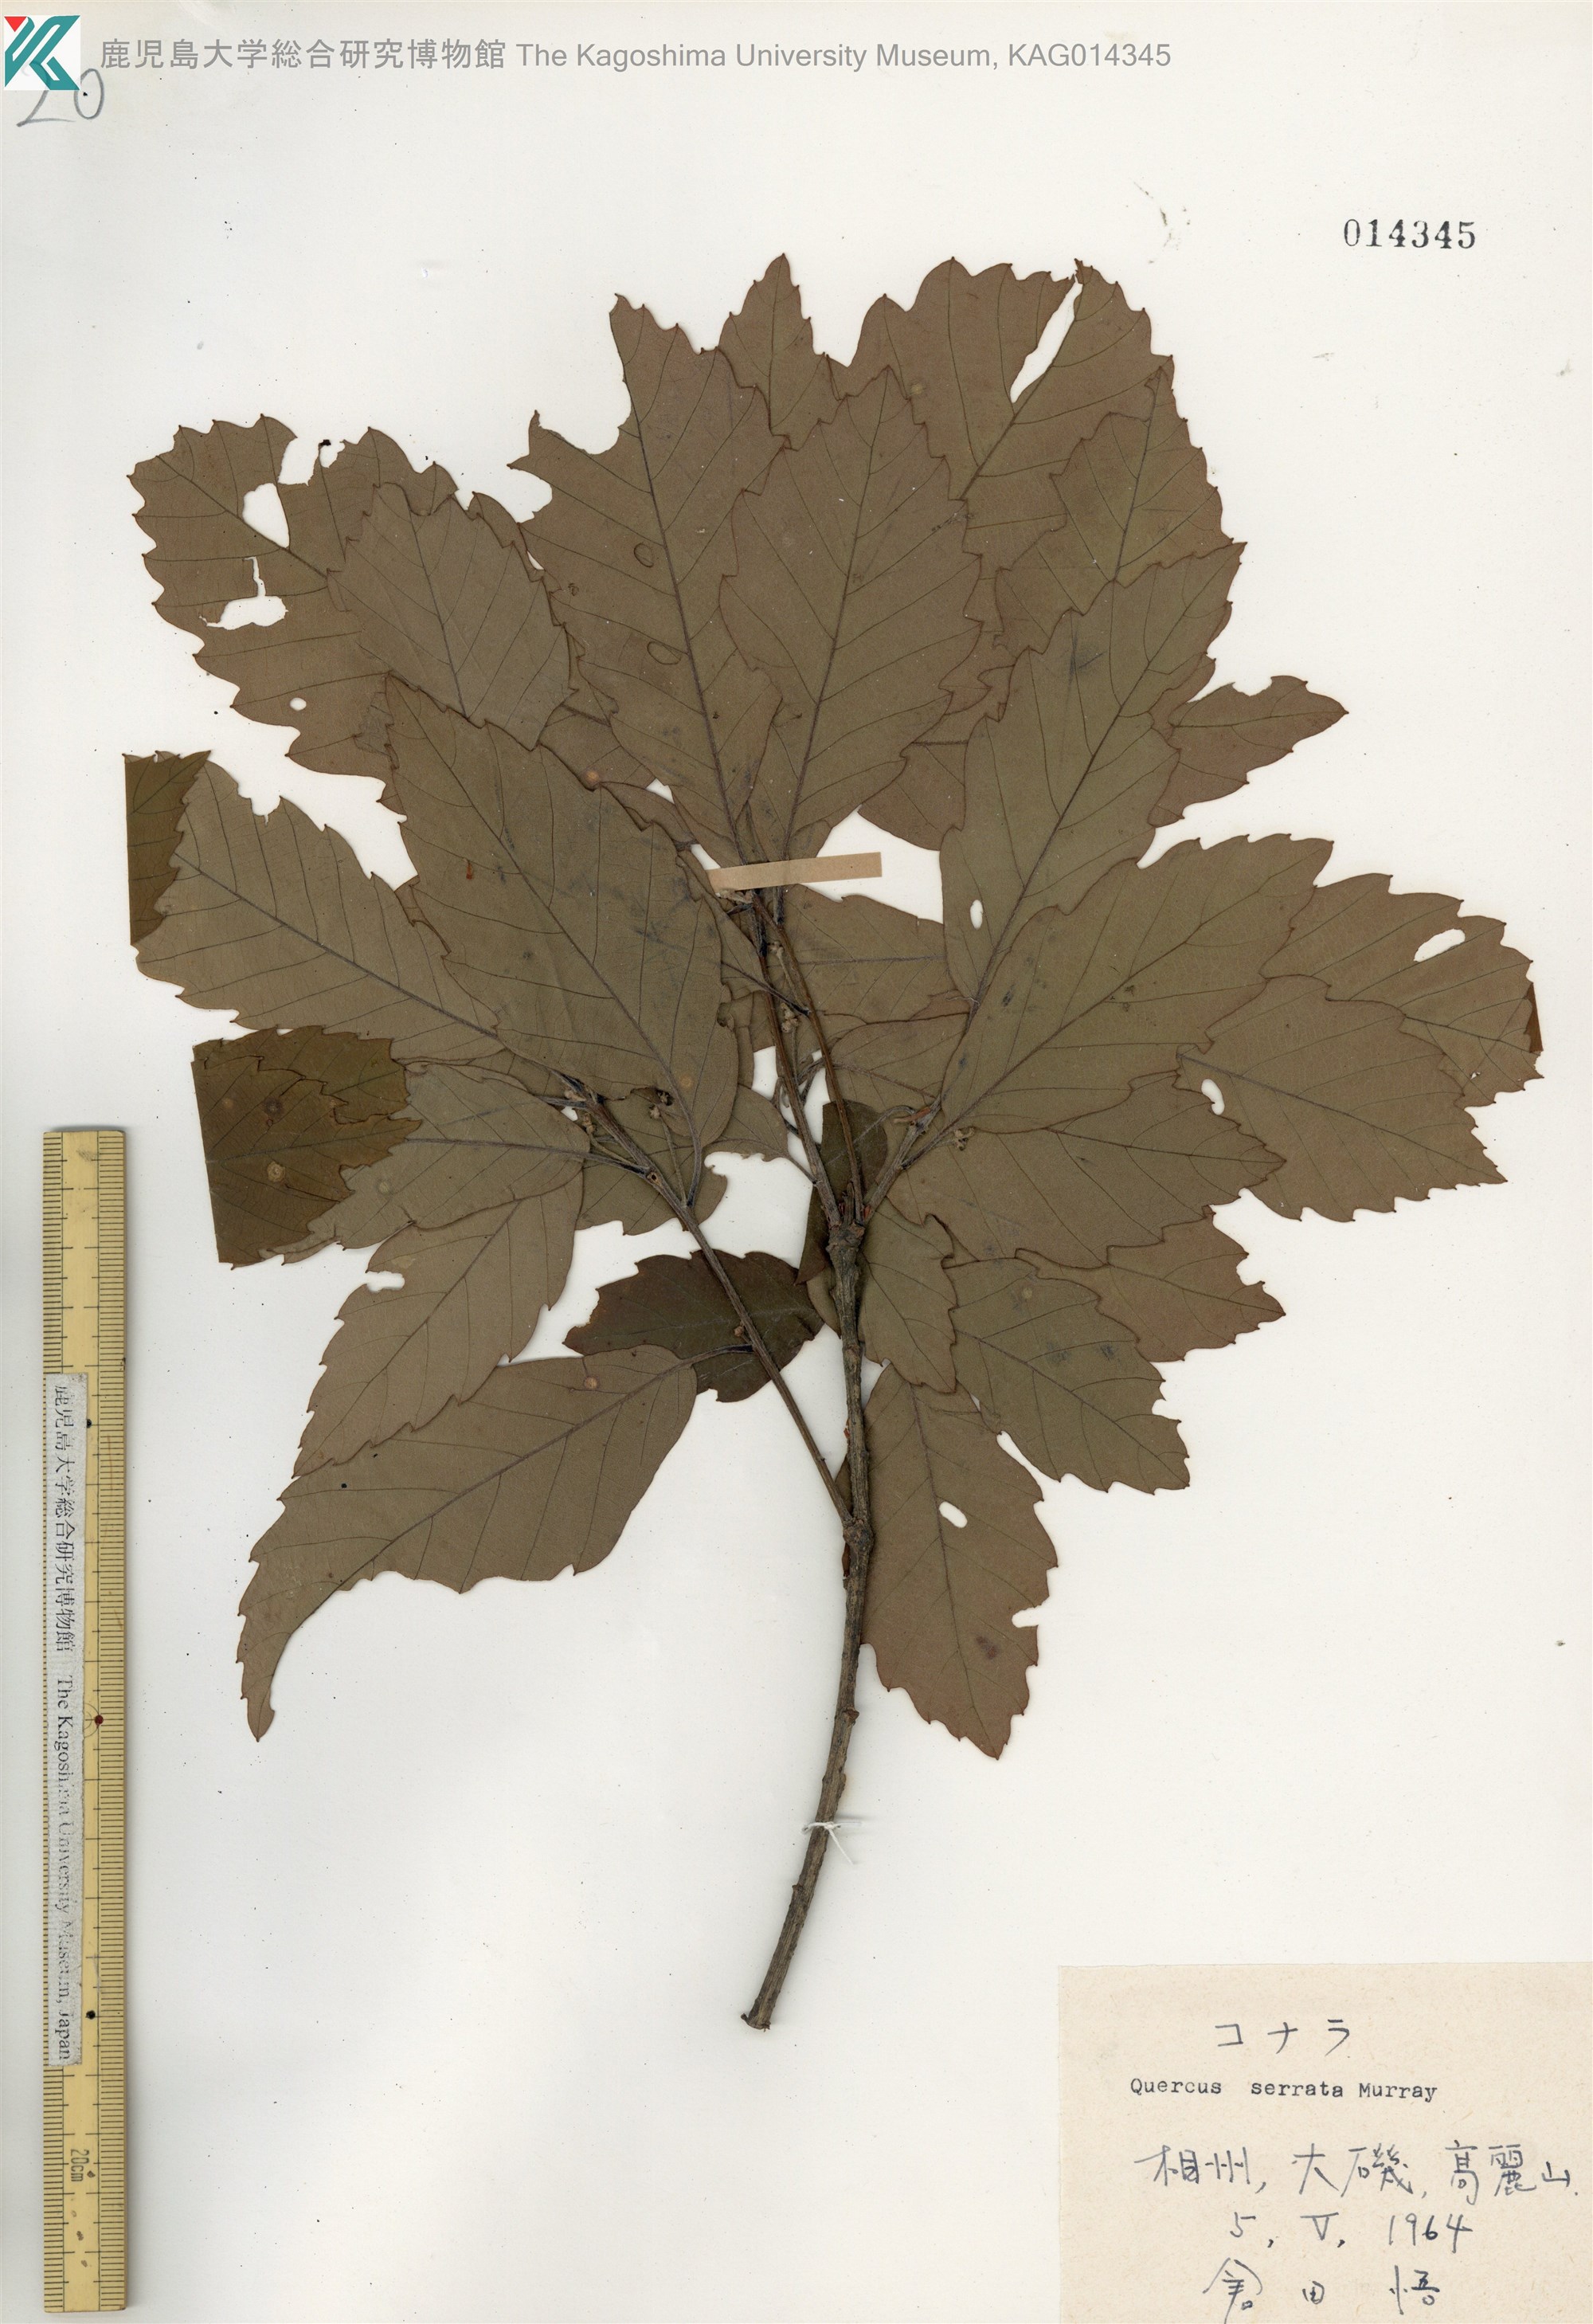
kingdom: Plantae
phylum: Tracheophyta
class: Magnoliopsida
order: Fagales
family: Fagaceae
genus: Quercus
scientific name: Quercus serrata
